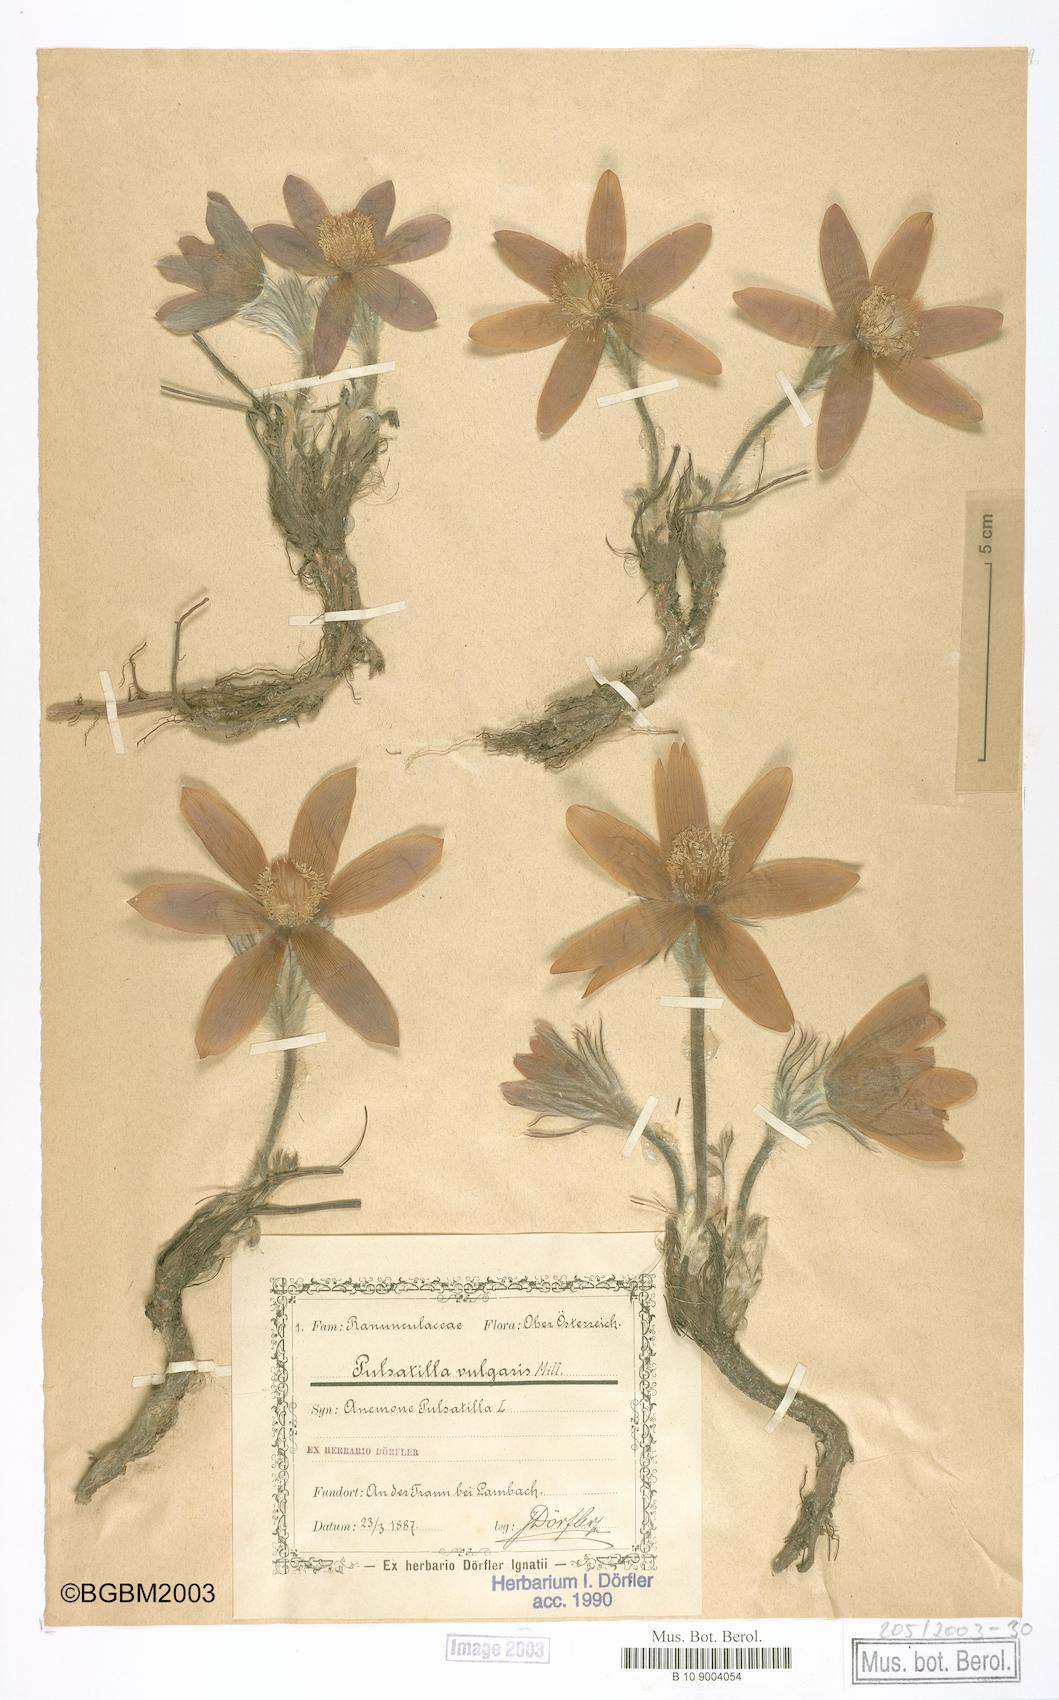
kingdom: Plantae
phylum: Tracheophyta
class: Magnoliopsida
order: Ranunculales
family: Ranunculaceae
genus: Pulsatilla
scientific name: Pulsatilla vulgaris
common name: Pasqueflower
